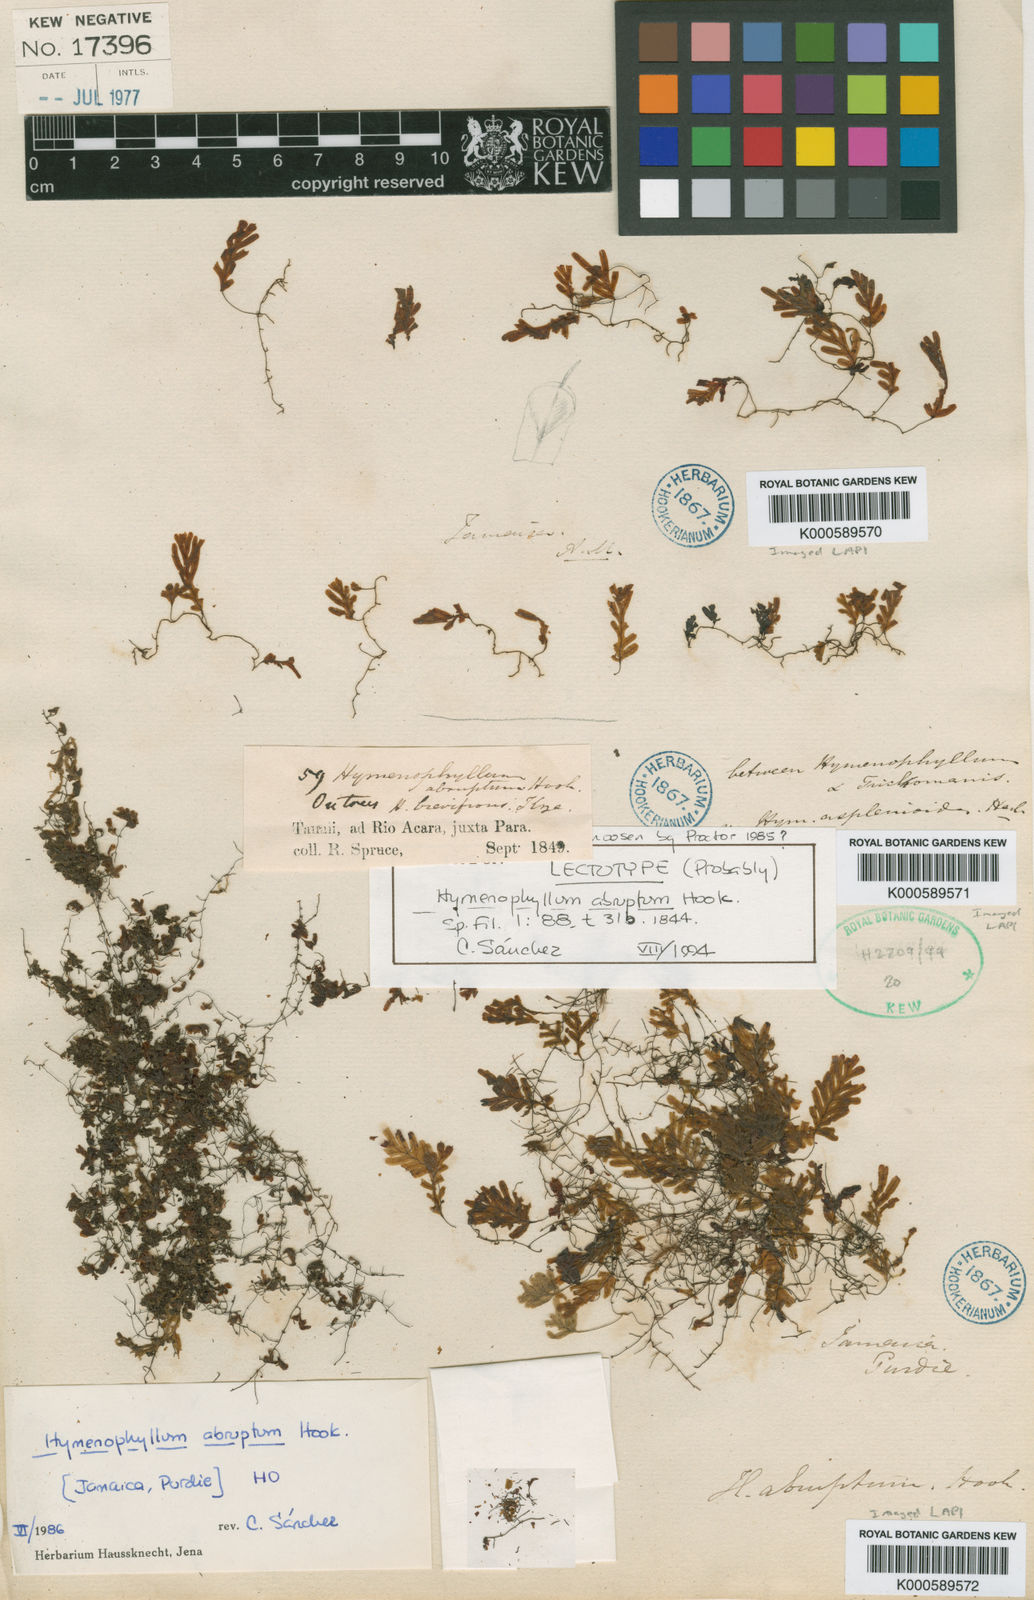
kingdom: Plantae
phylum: Tracheophyta
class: Polypodiopsida
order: Hymenophyllales
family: Hymenophyllaceae
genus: Hymenophyllum
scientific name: Hymenophyllum abruptum
